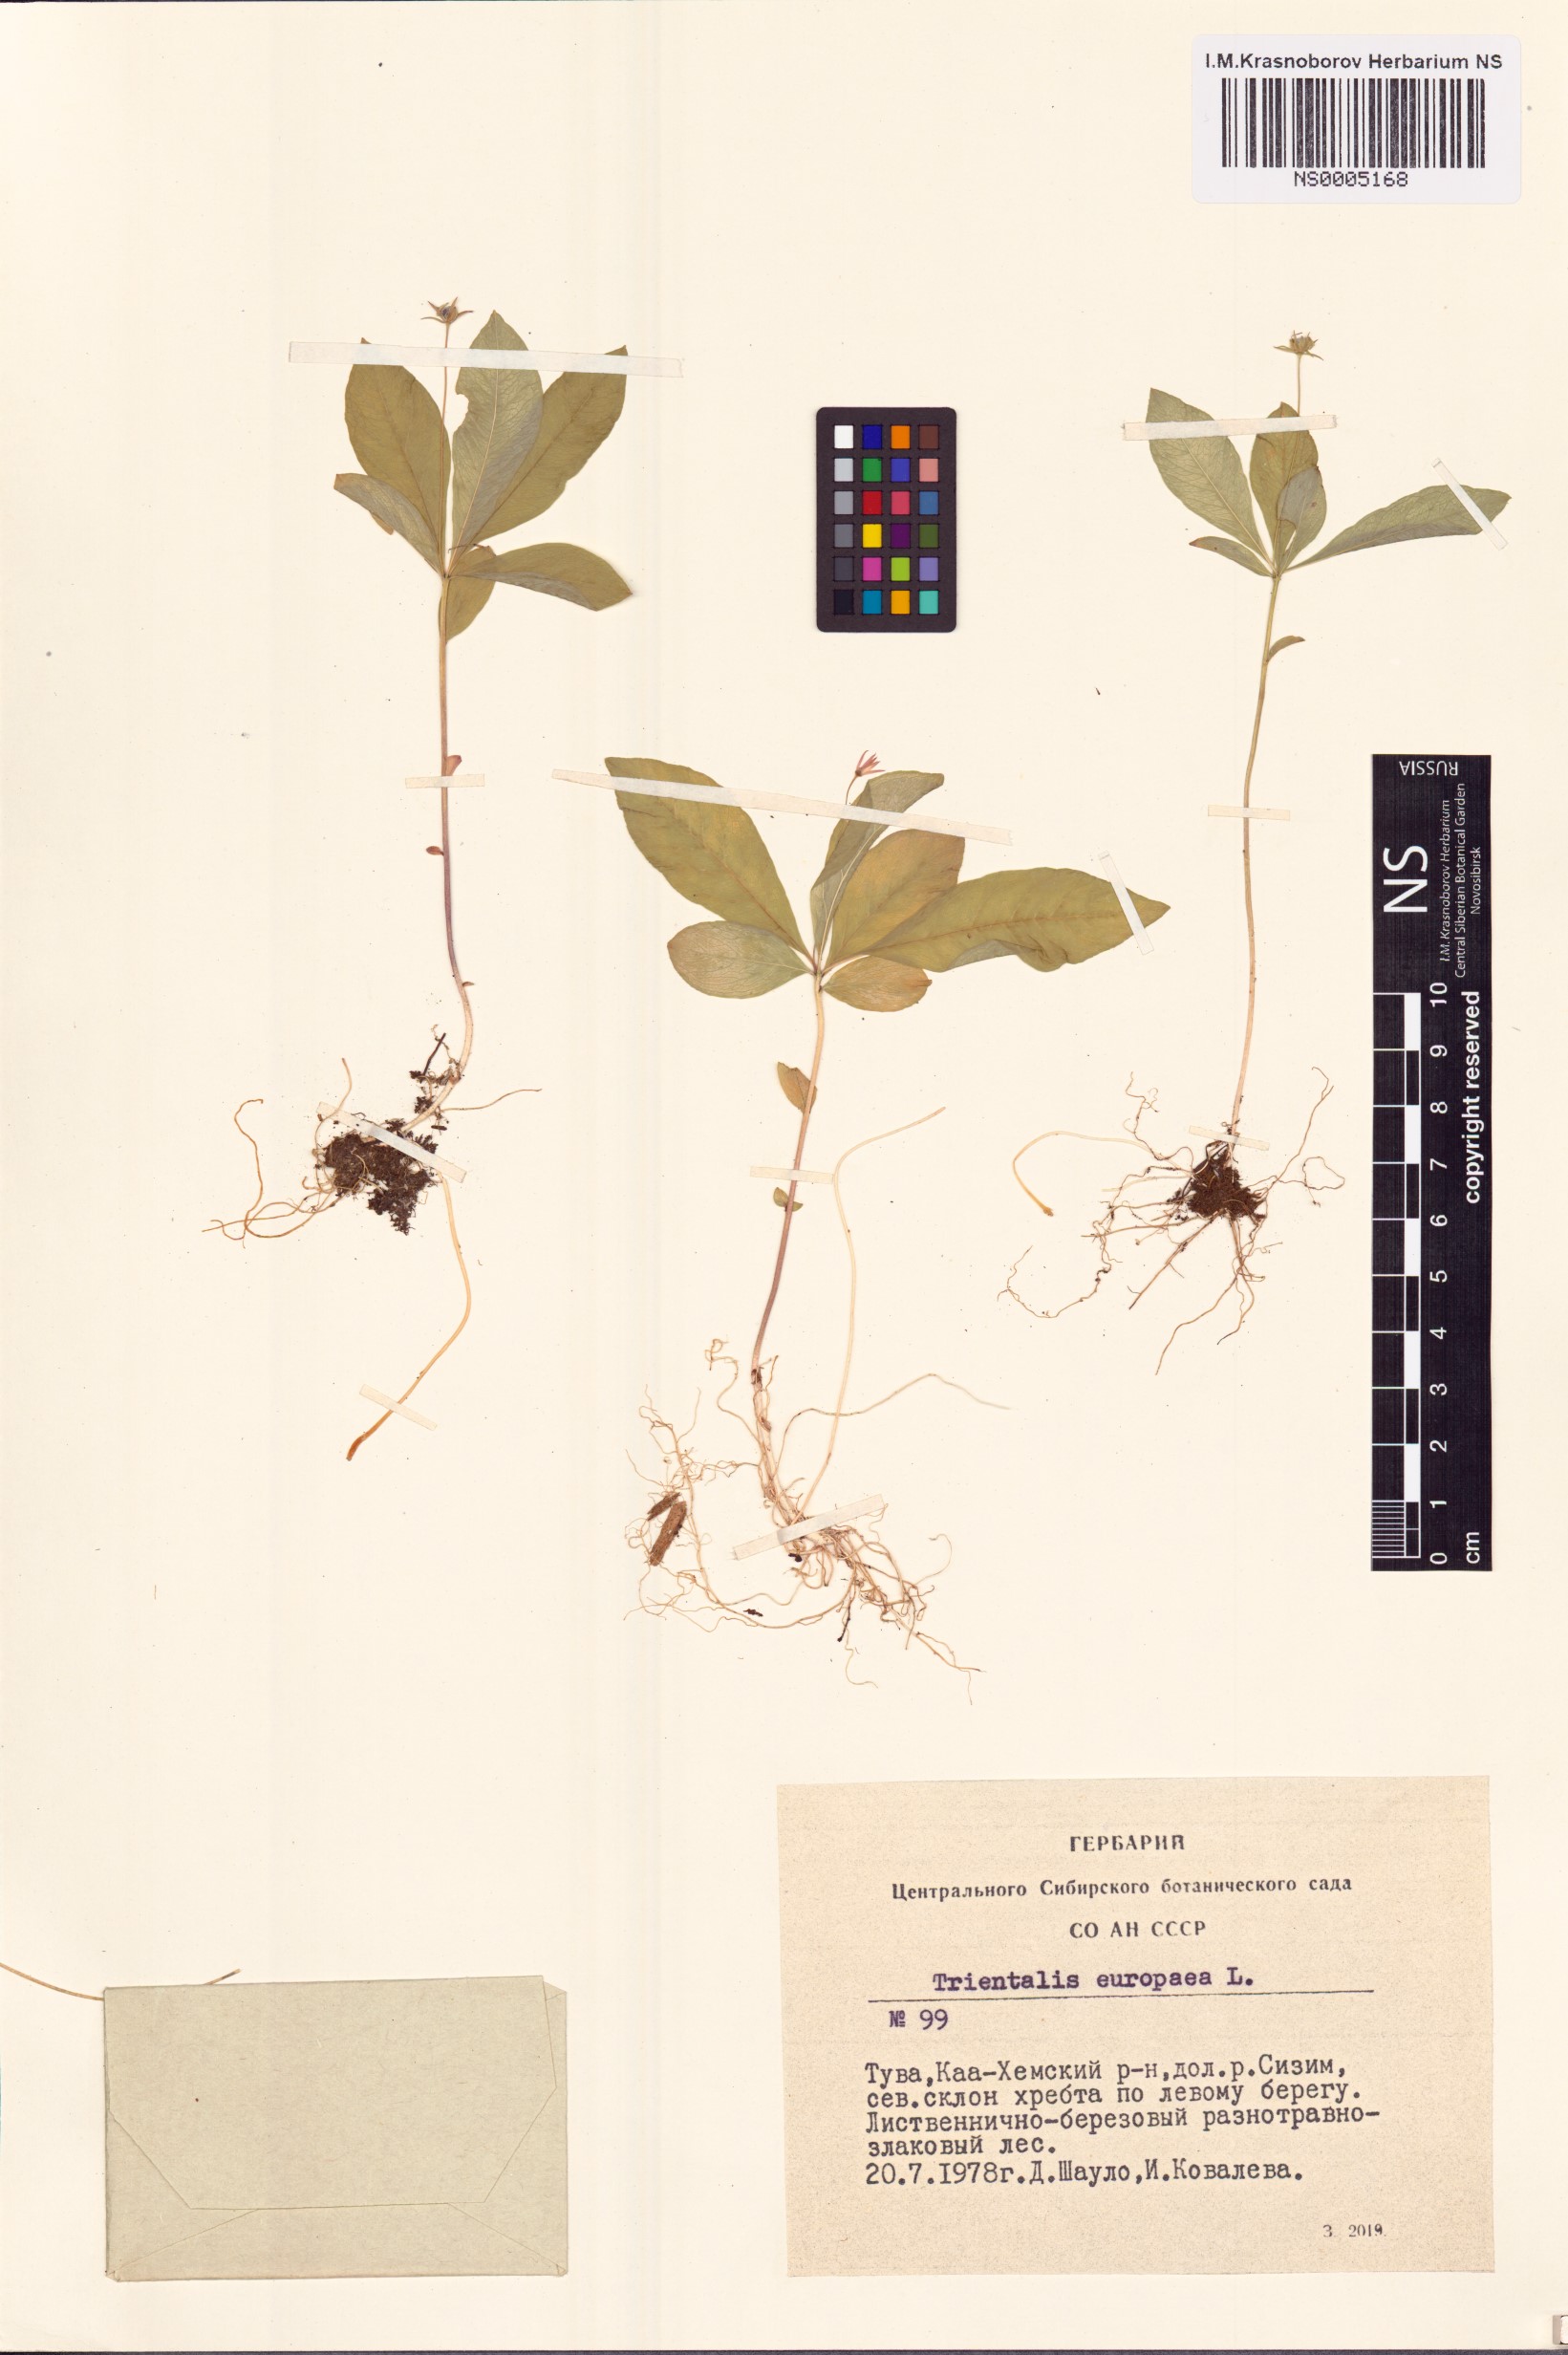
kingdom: Plantae
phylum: Tracheophyta
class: Magnoliopsida
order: Ericales
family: Primulaceae
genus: Lysimachia
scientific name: Lysimachia europaea
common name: Arctic starflower
